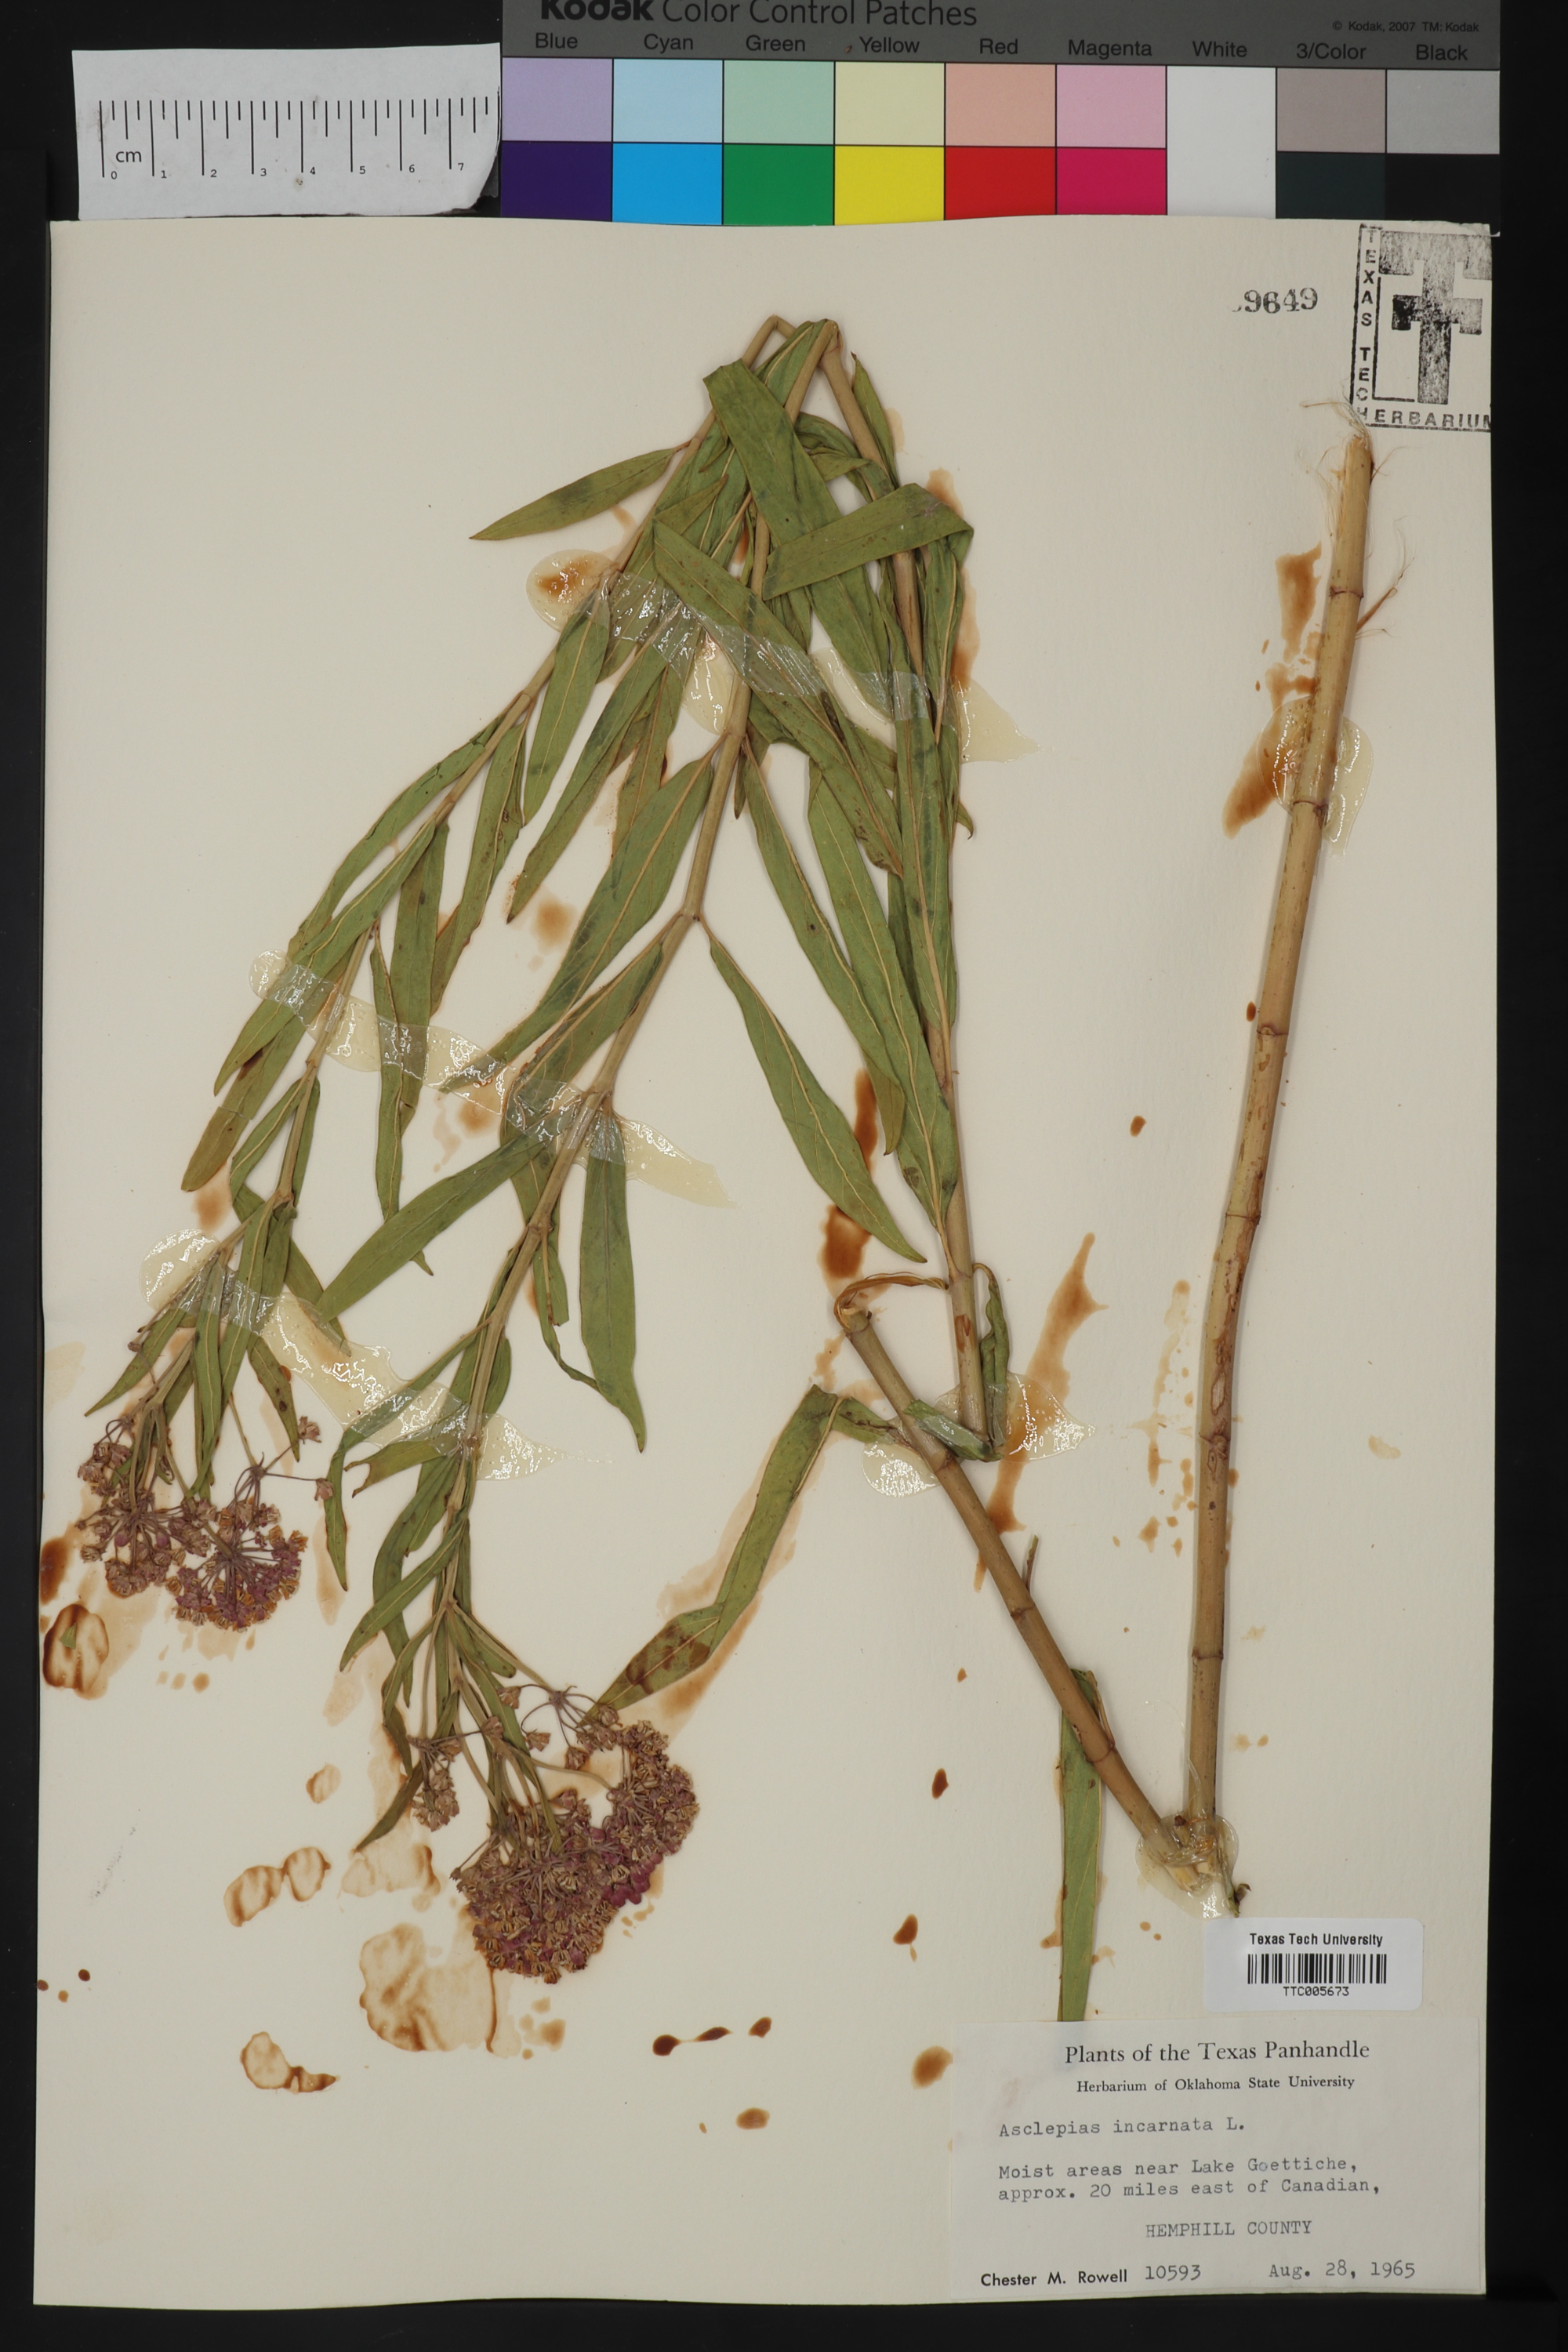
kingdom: Plantae
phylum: Tracheophyta
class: Magnoliopsida
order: Gentianales
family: Apocynaceae
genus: Asclepias
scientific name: Asclepias incarnata
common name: Swamp milkweed
